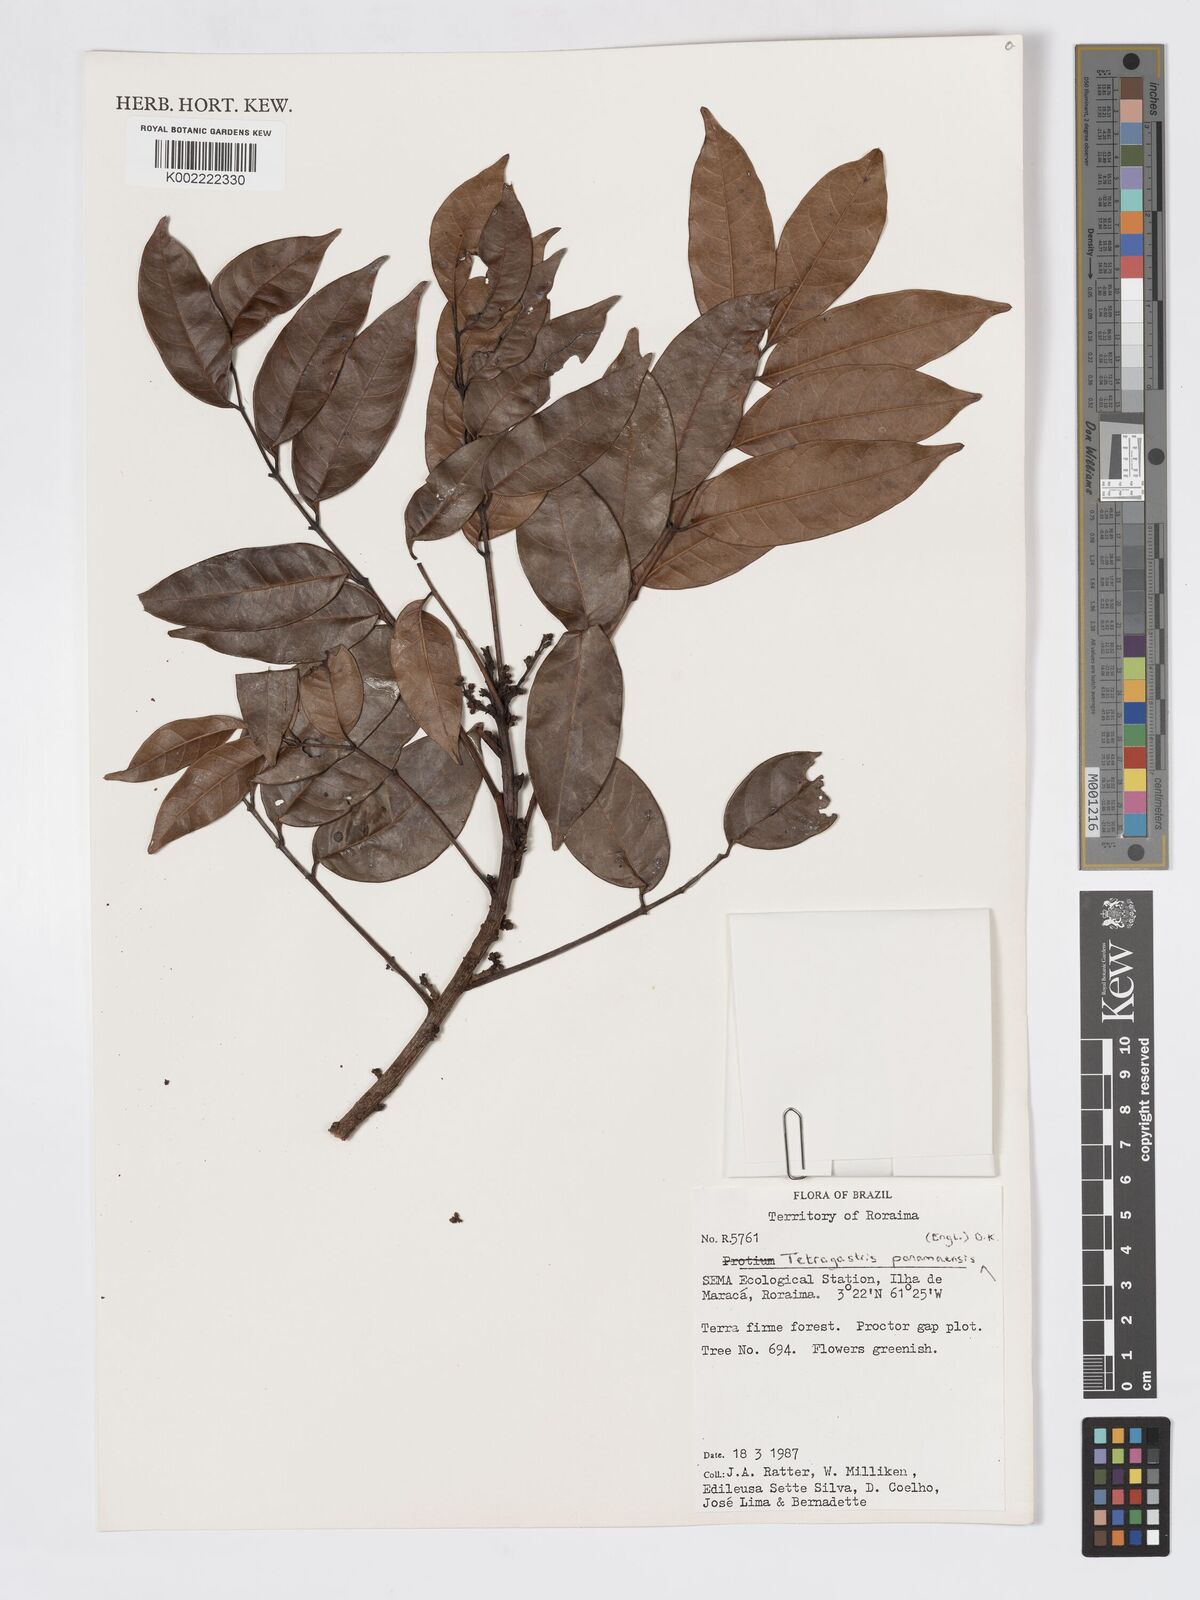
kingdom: Plantae
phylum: Tracheophyta
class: Magnoliopsida
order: Sapindales
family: Burseraceae
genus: Tetragastris
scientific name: Tetragastris panamensis
